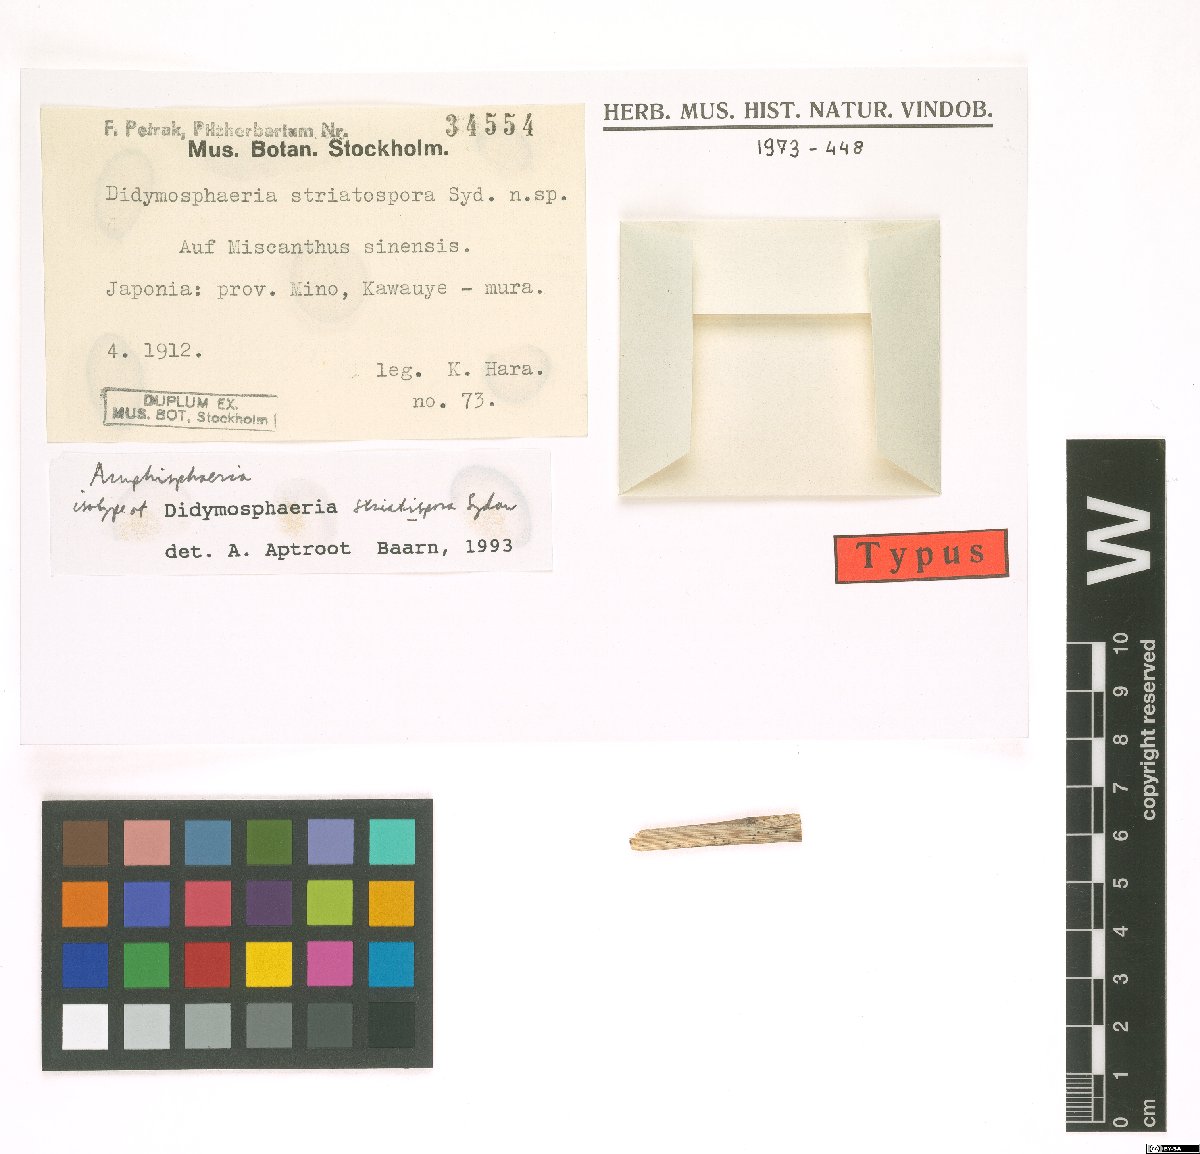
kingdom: Fungi
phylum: Ascomycota
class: Dothideomycetes
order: Pleosporales
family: Didymosphaeriaceae
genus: Didymosphaeria
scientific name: Didymosphaeria massarioides
